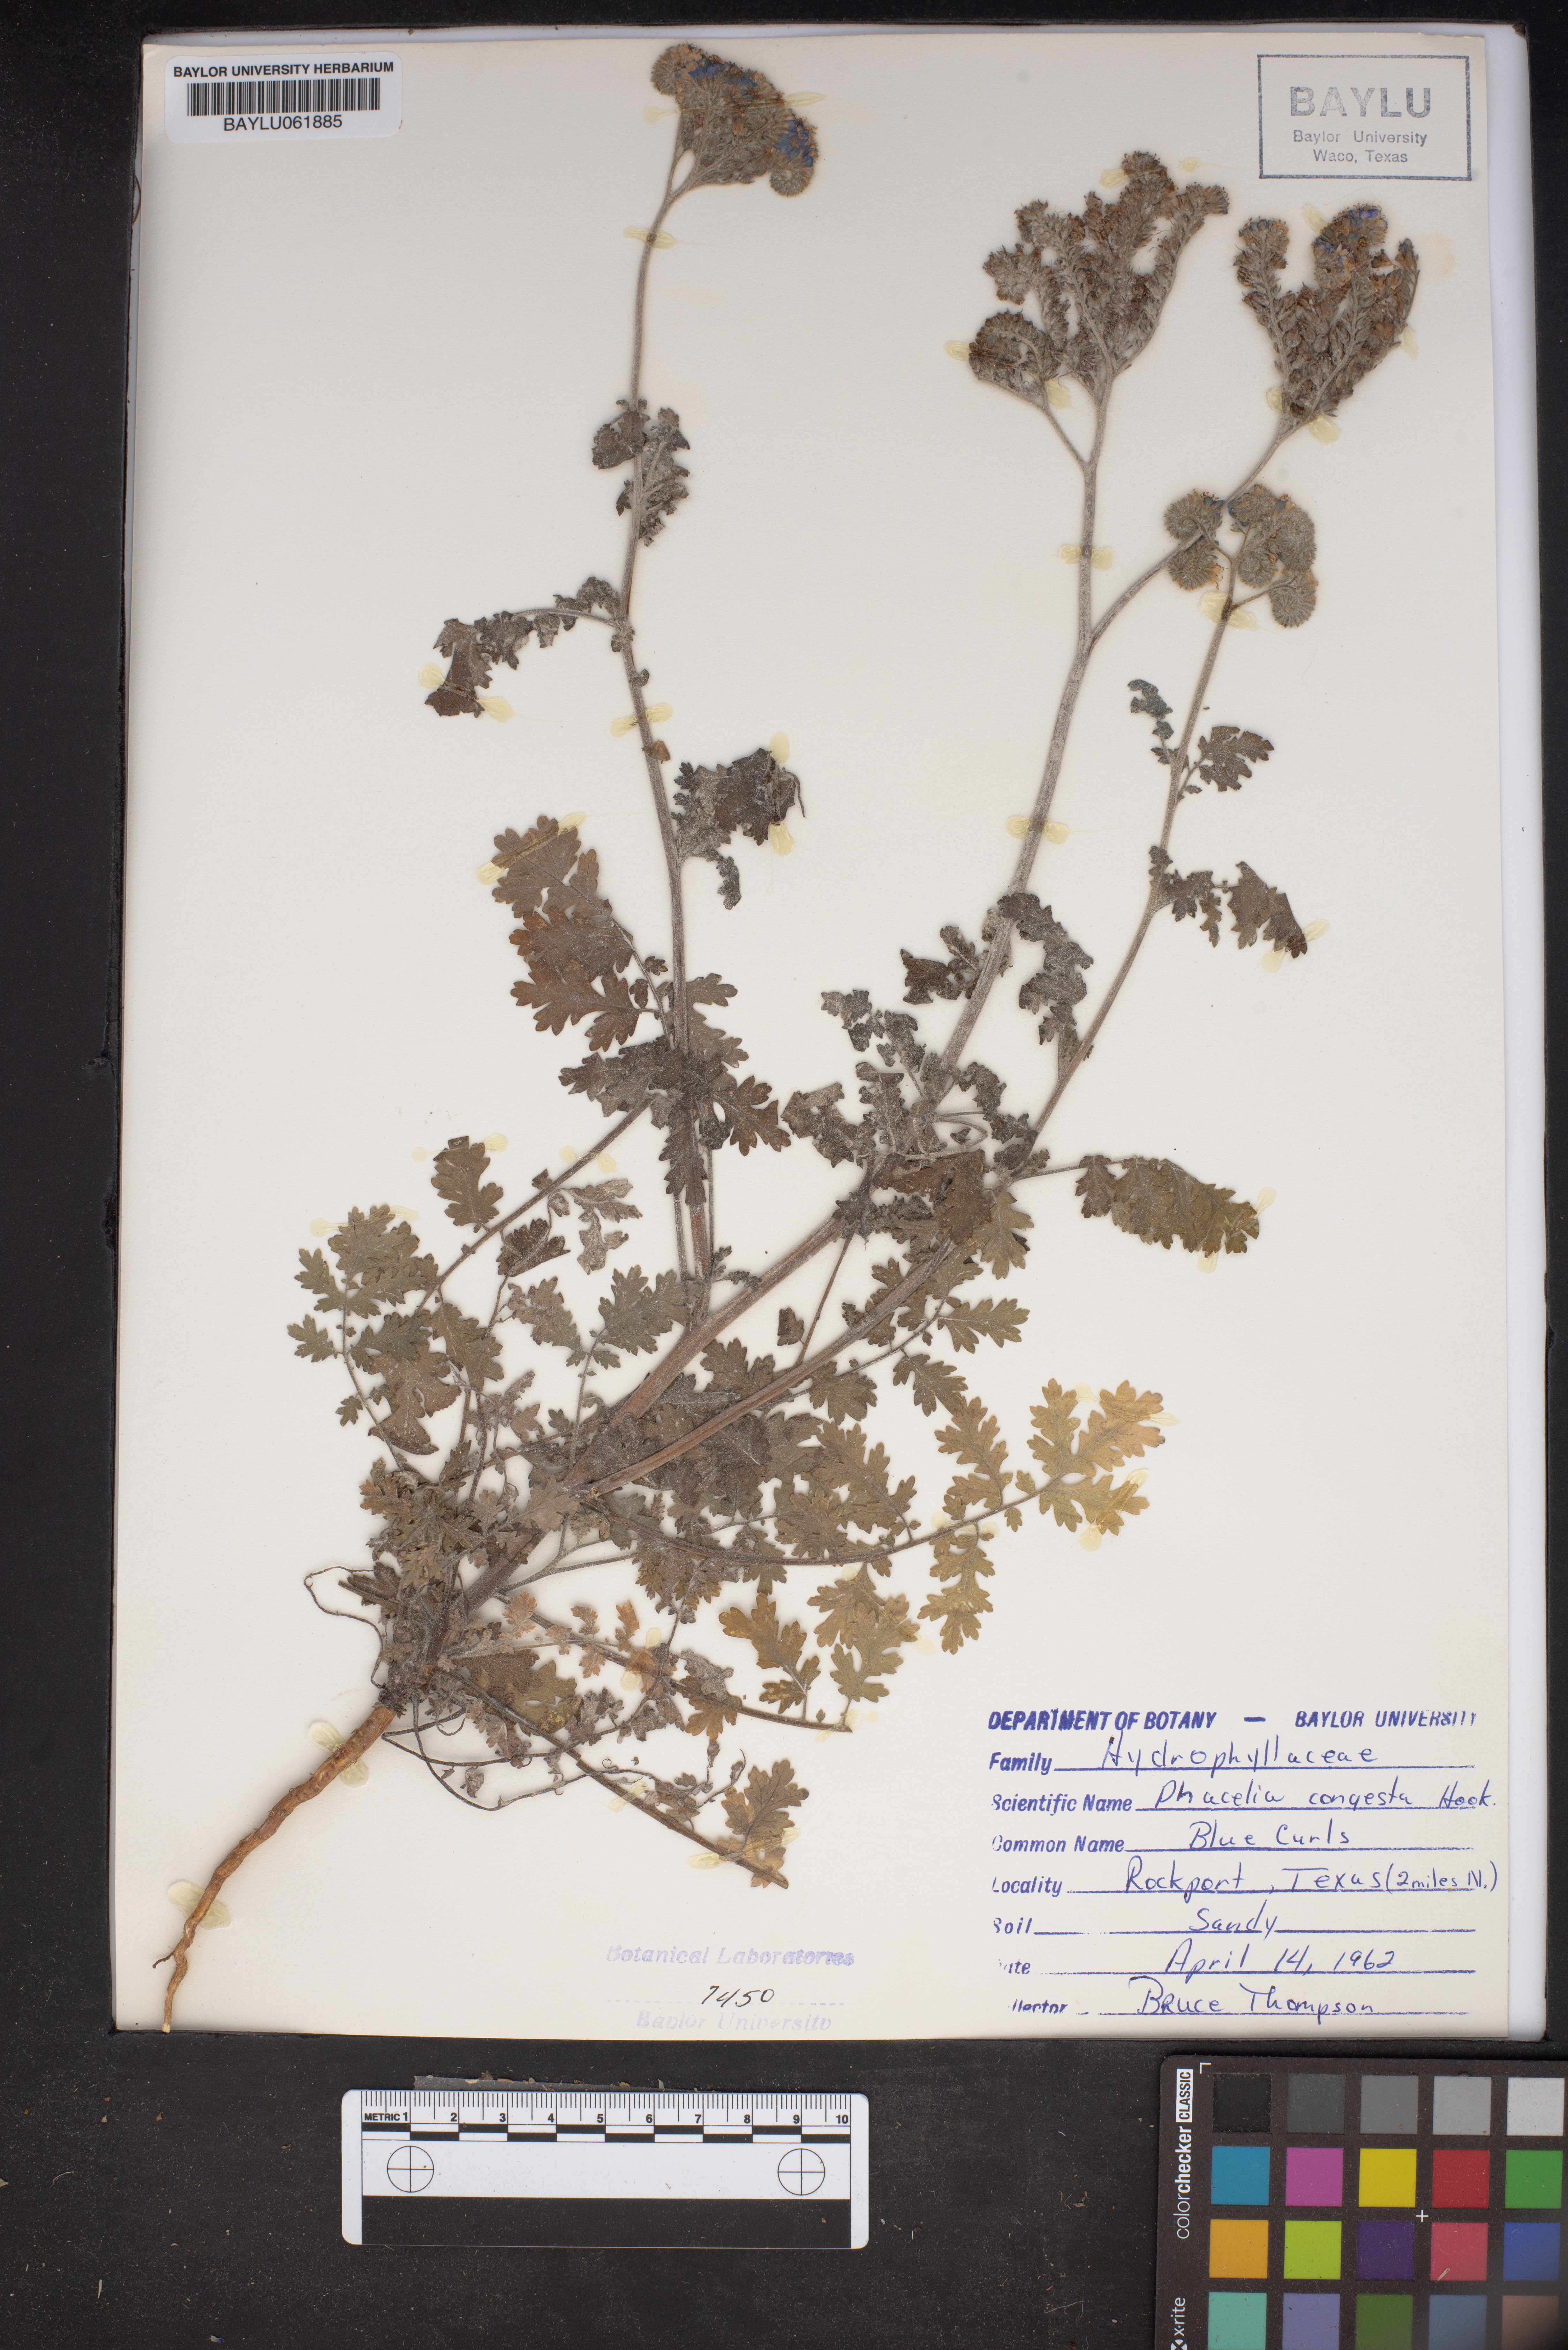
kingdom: Plantae
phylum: Tracheophyta
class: Magnoliopsida
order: Boraginales
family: Hydrophyllaceae
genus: Phacelia
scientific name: Phacelia congesta
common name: Blue curls
